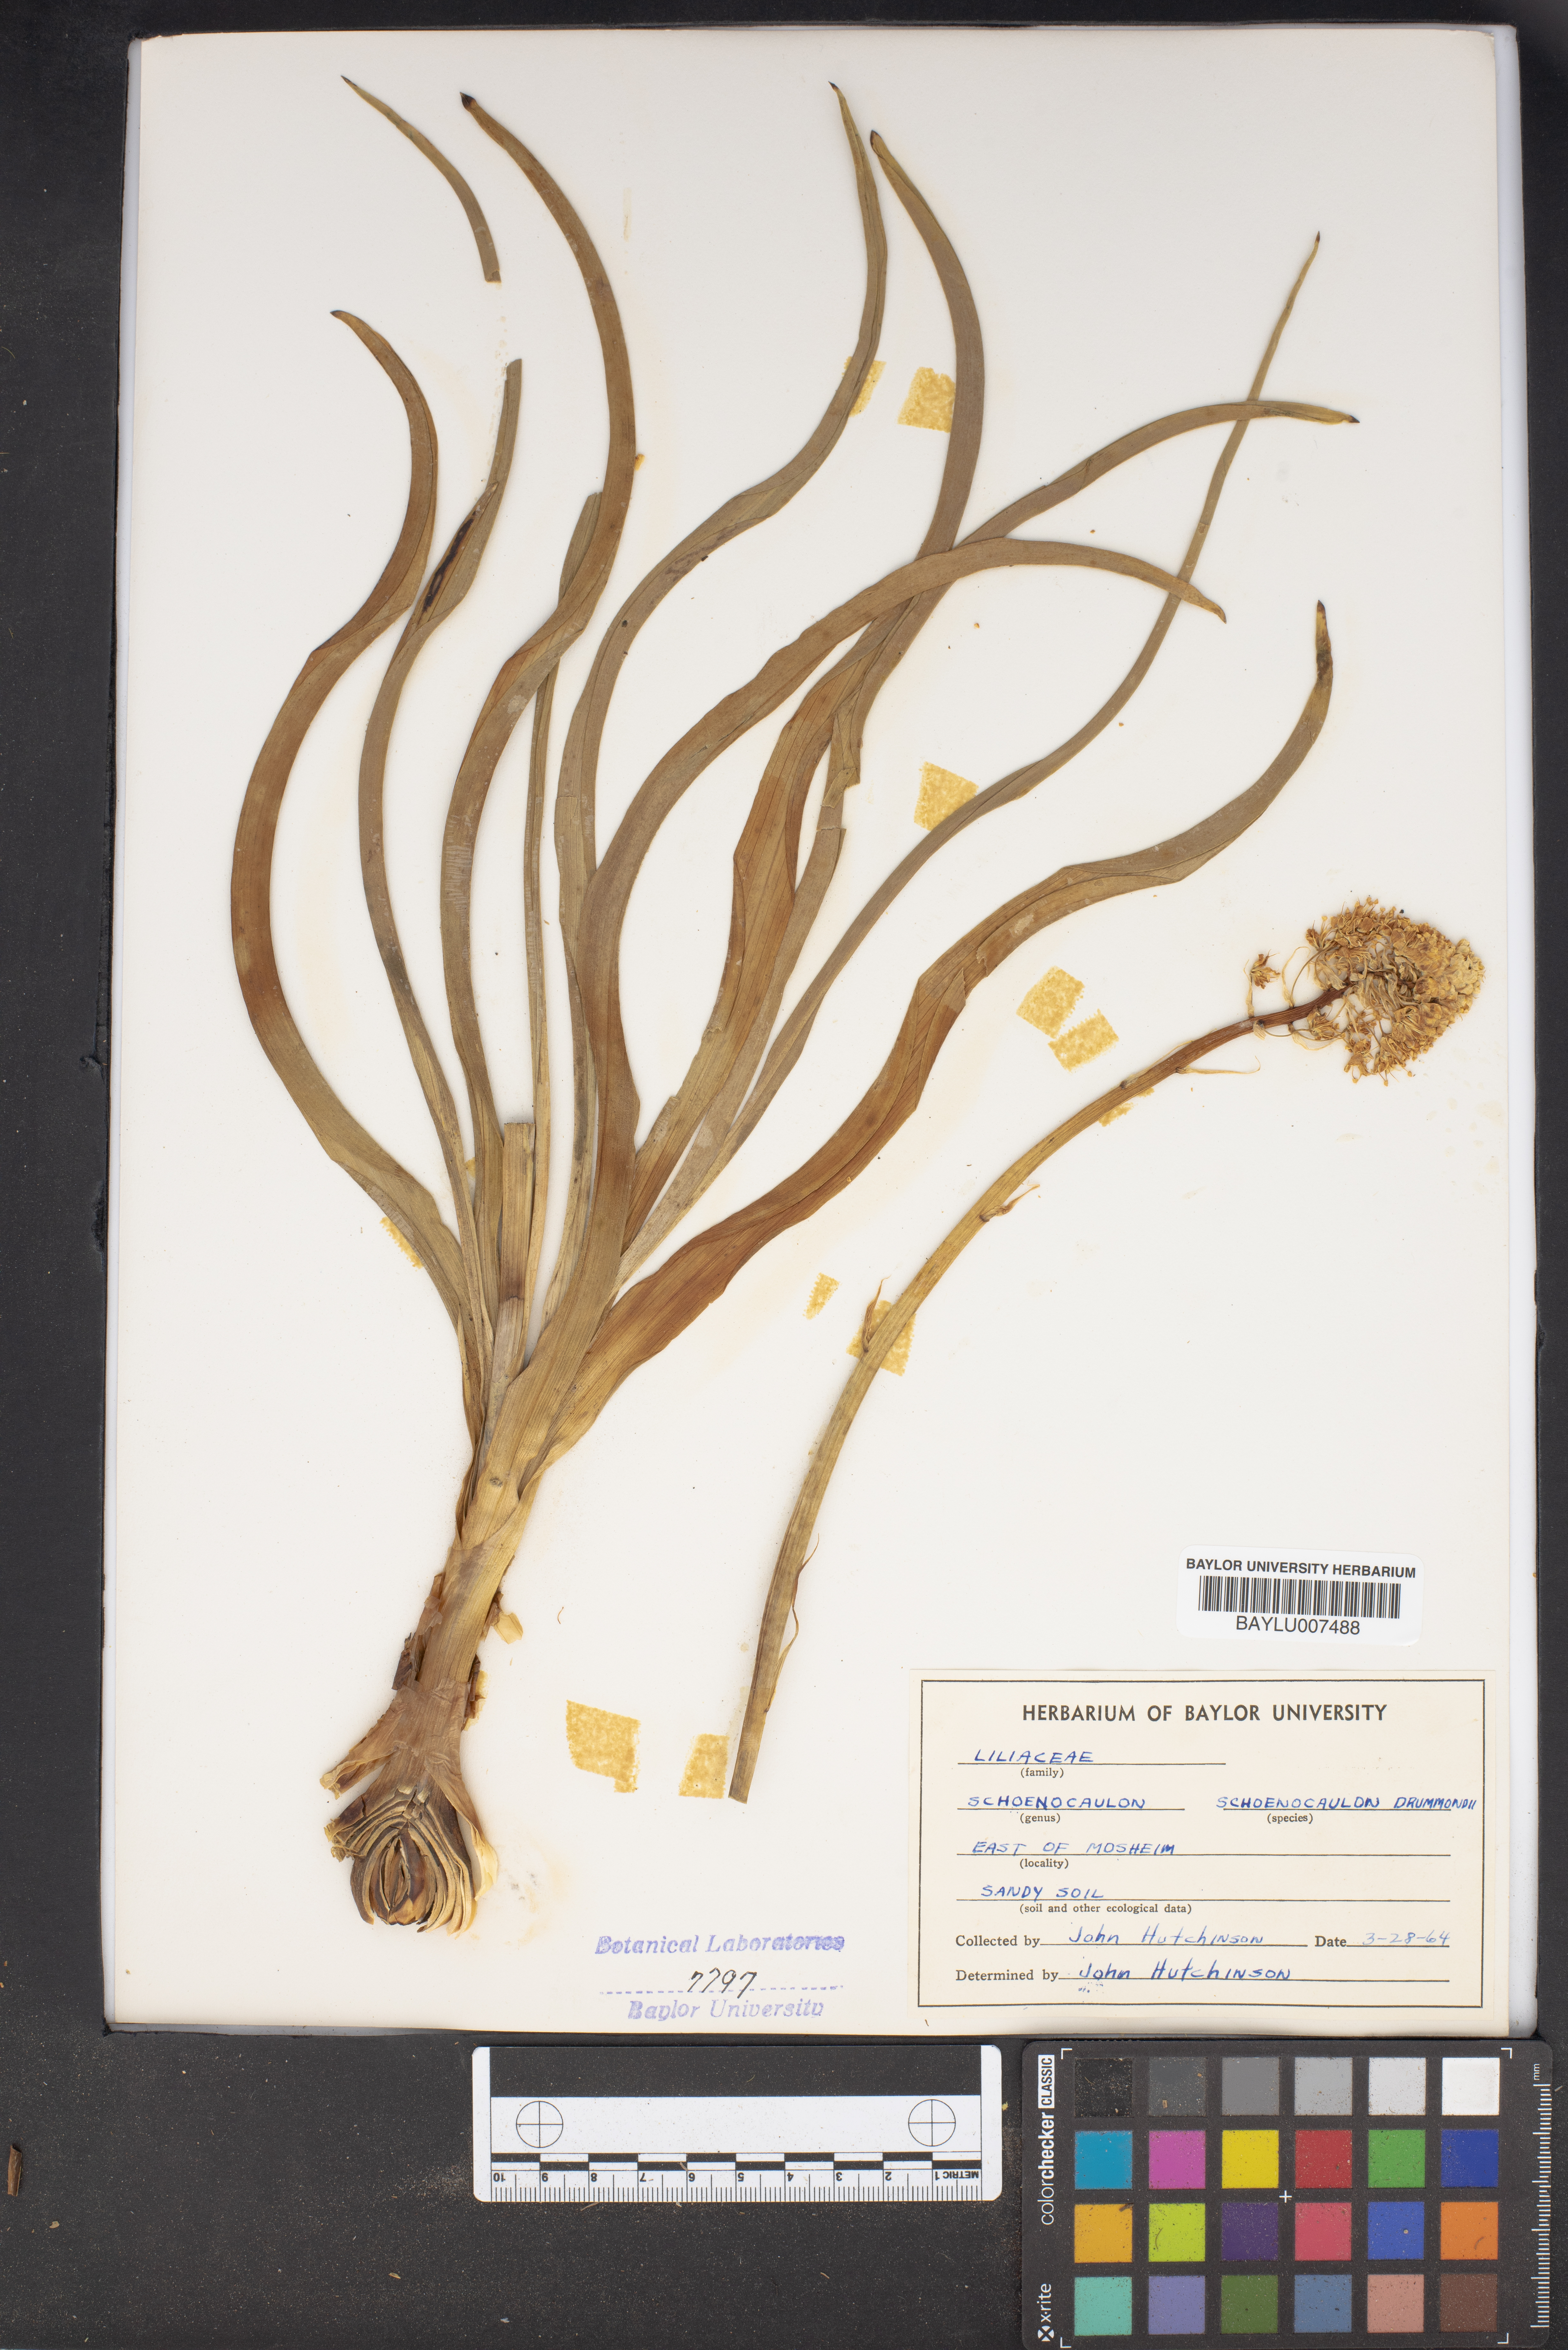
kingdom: Plantae
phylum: Tracheophyta
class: Liliopsida
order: Liliales
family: Melanthiaceae
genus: Schoenocaulon
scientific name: Schoenocaulon ghiesbreghtii
